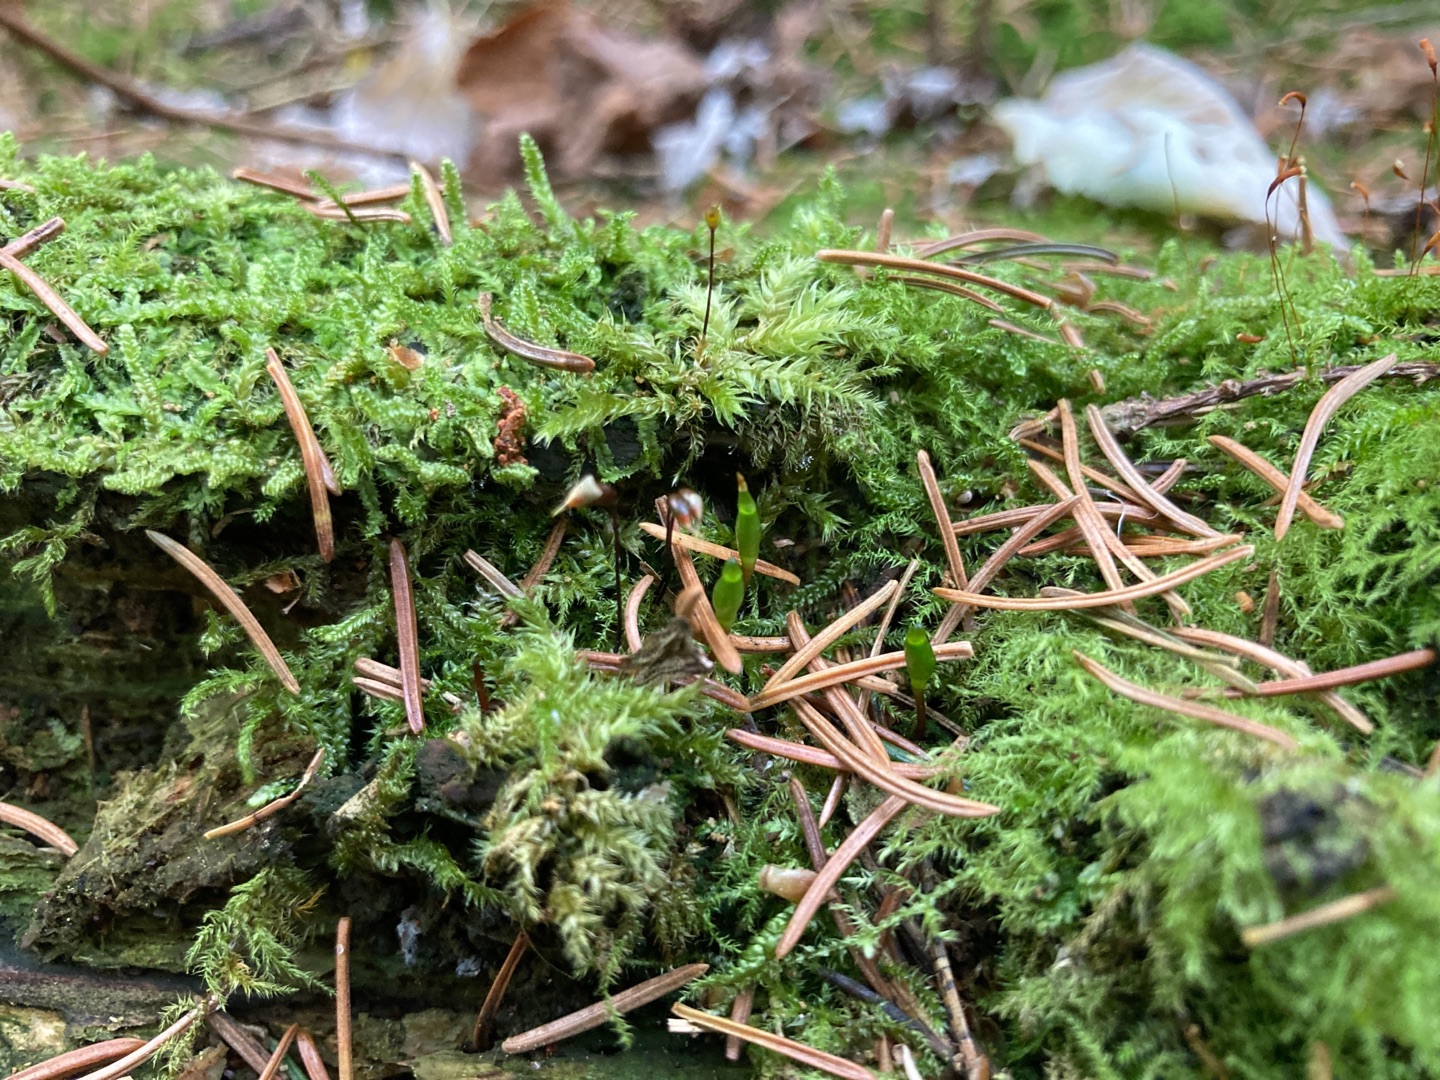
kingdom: Plantae
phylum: Bryophyta
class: Bryopsida
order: Buxbaumiales
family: Buxbaumiaceae
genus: Buxbaumia
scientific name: Buxbaumia viridis
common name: Grøn buxbaumia
